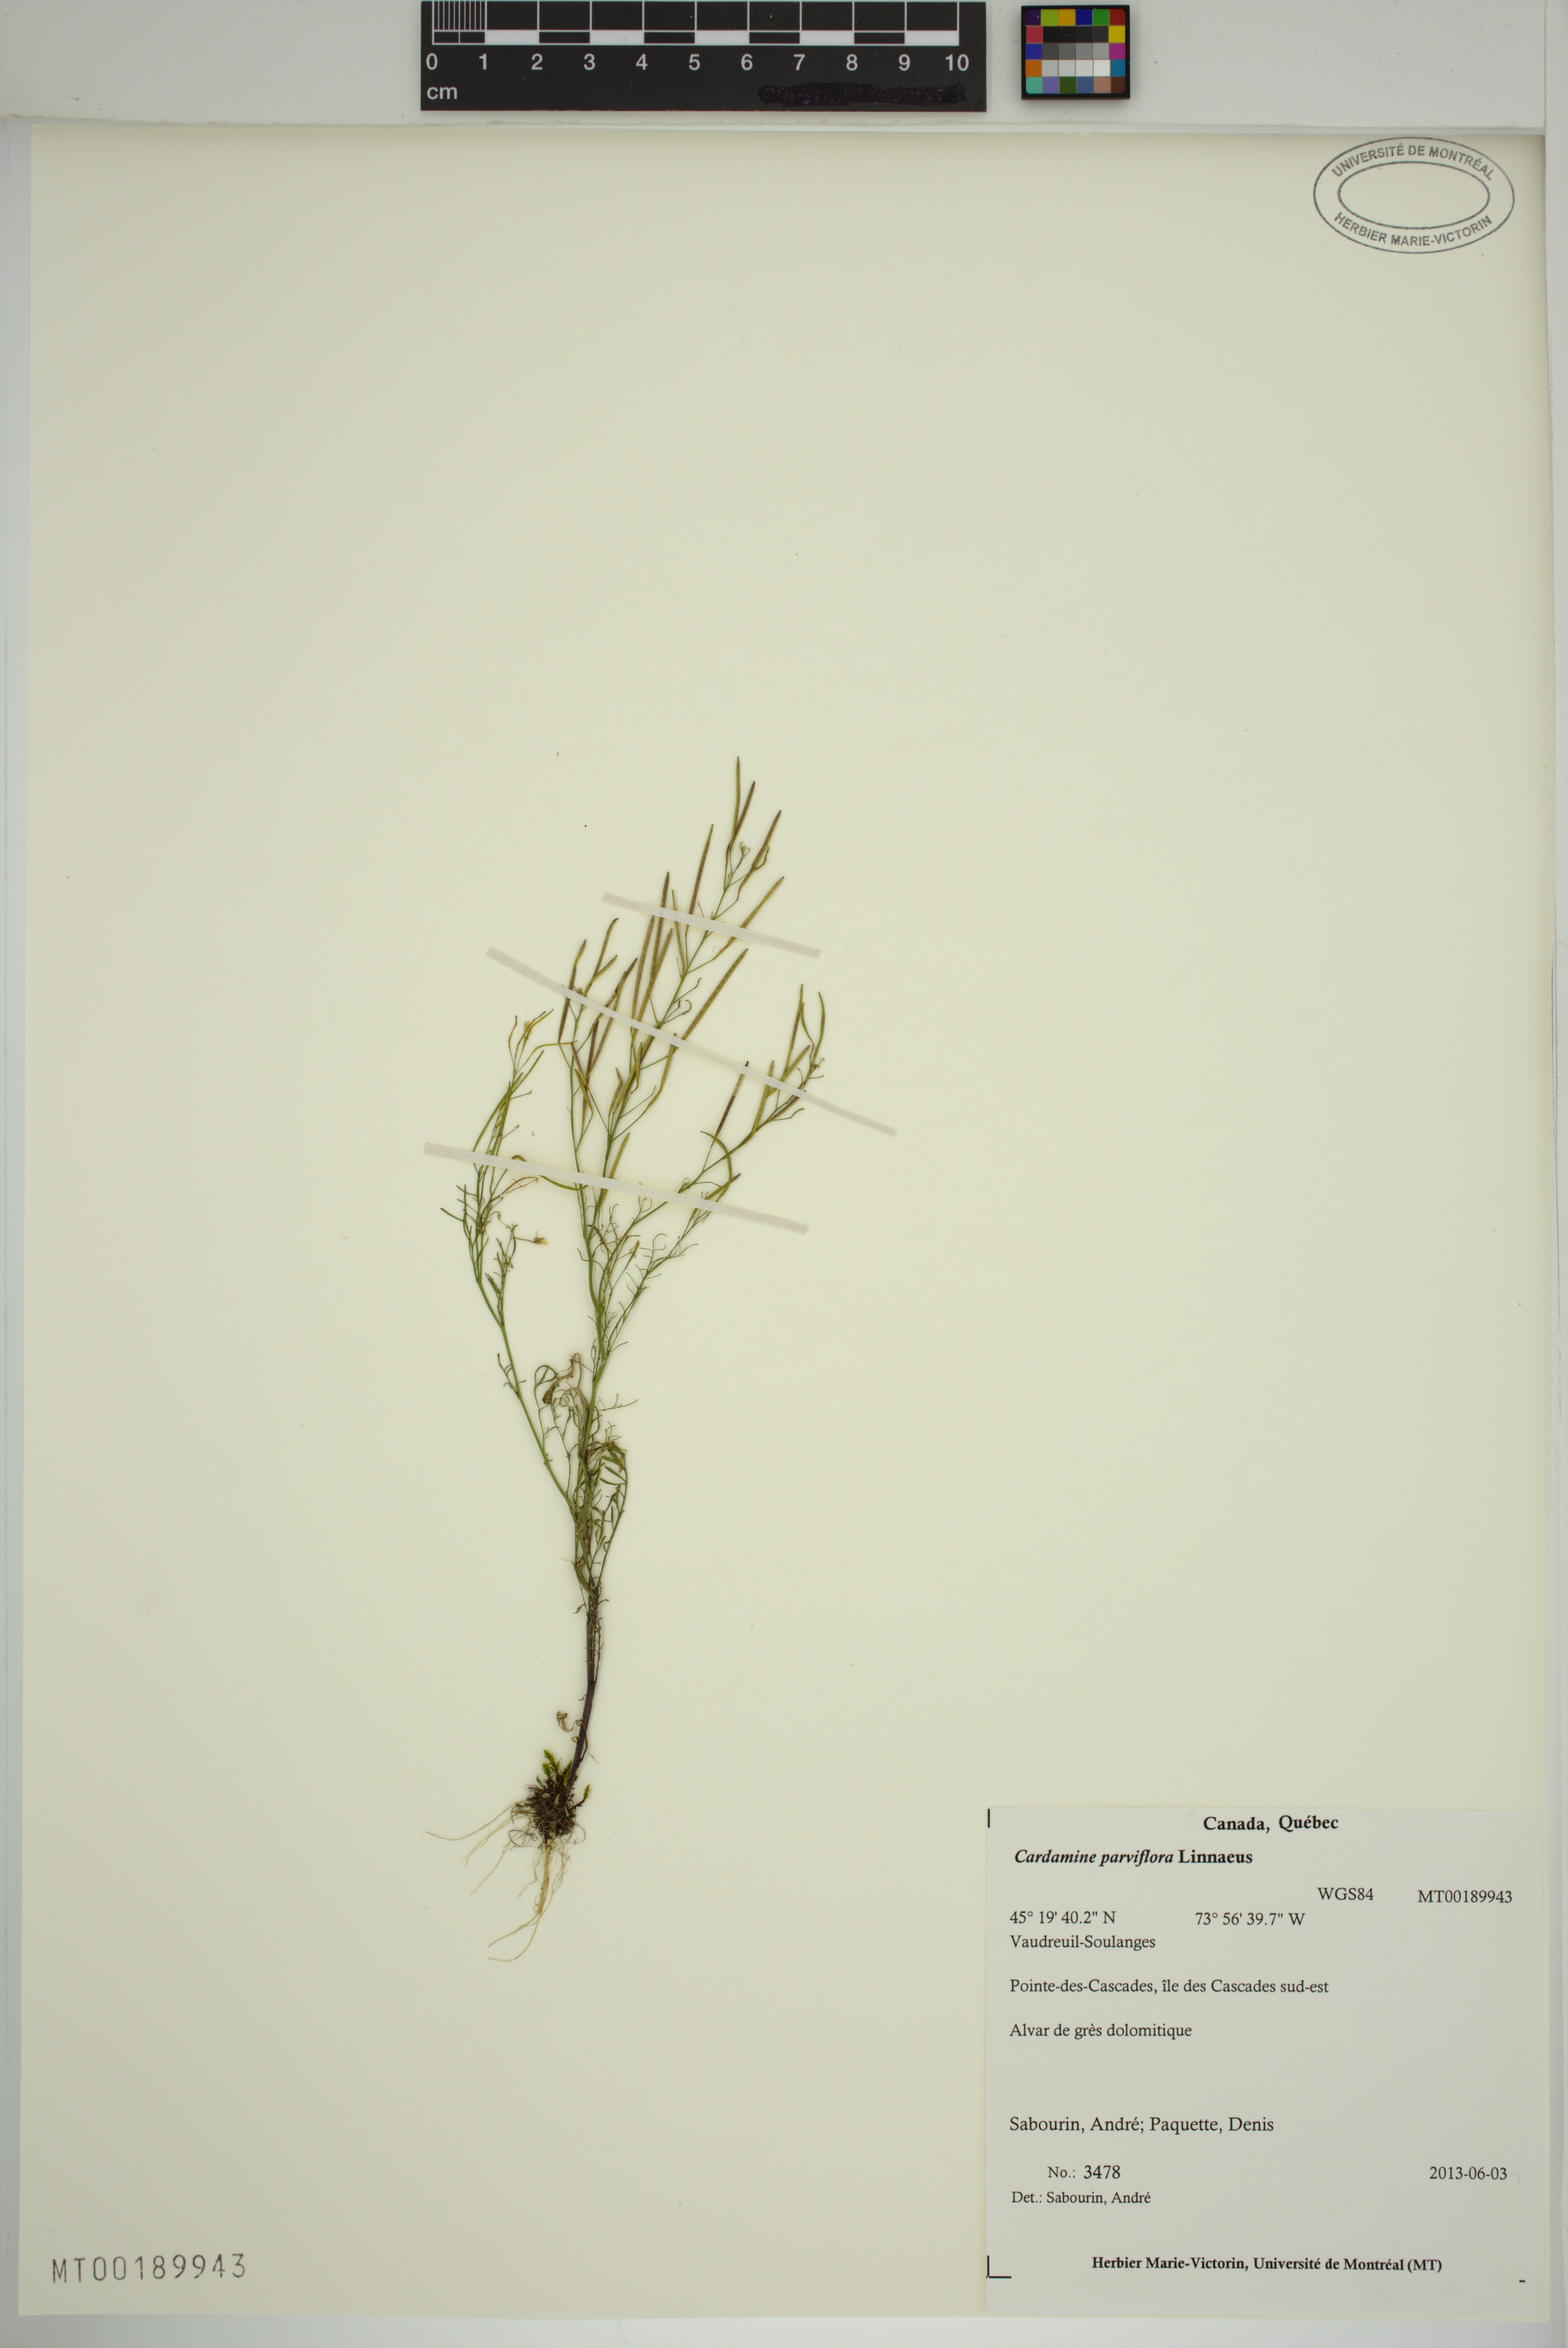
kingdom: Plantae
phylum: Tracheophyta
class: Magnoliopsida
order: Brassicales
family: Brassicaceae
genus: Cardamine
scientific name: Cardamine parviflora
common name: Sand bittercress
